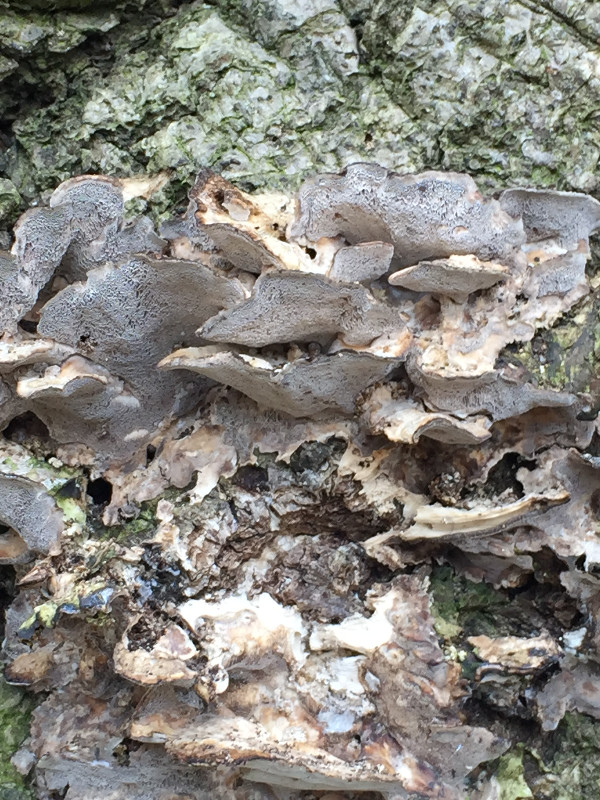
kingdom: Fungi
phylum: Basidiomycota
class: Agaricomycetes
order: Polyporales
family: Phanerochaetaceae
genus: Bjerkandera
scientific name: Bjerkandera adusta
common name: sveden sodporesvamp
